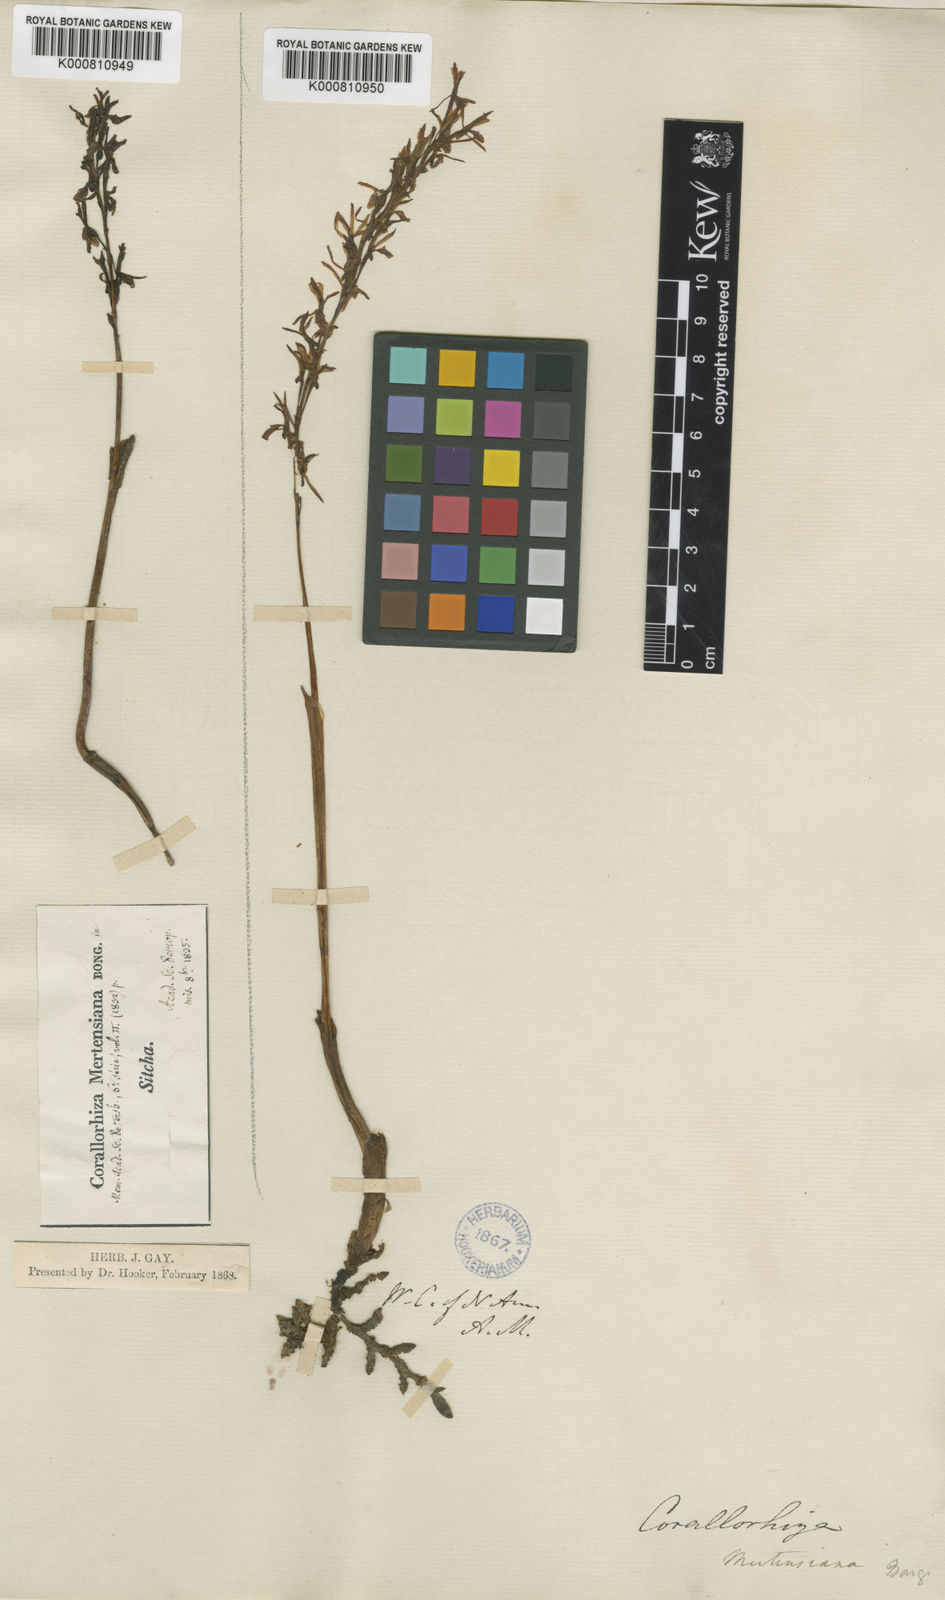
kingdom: Plantae
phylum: Tracheophyta
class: Liliopsida
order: Asparagales
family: Orchidaceae
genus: Corallorhiza
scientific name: Corallorhiza mertensiana
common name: Pacific coralroot
